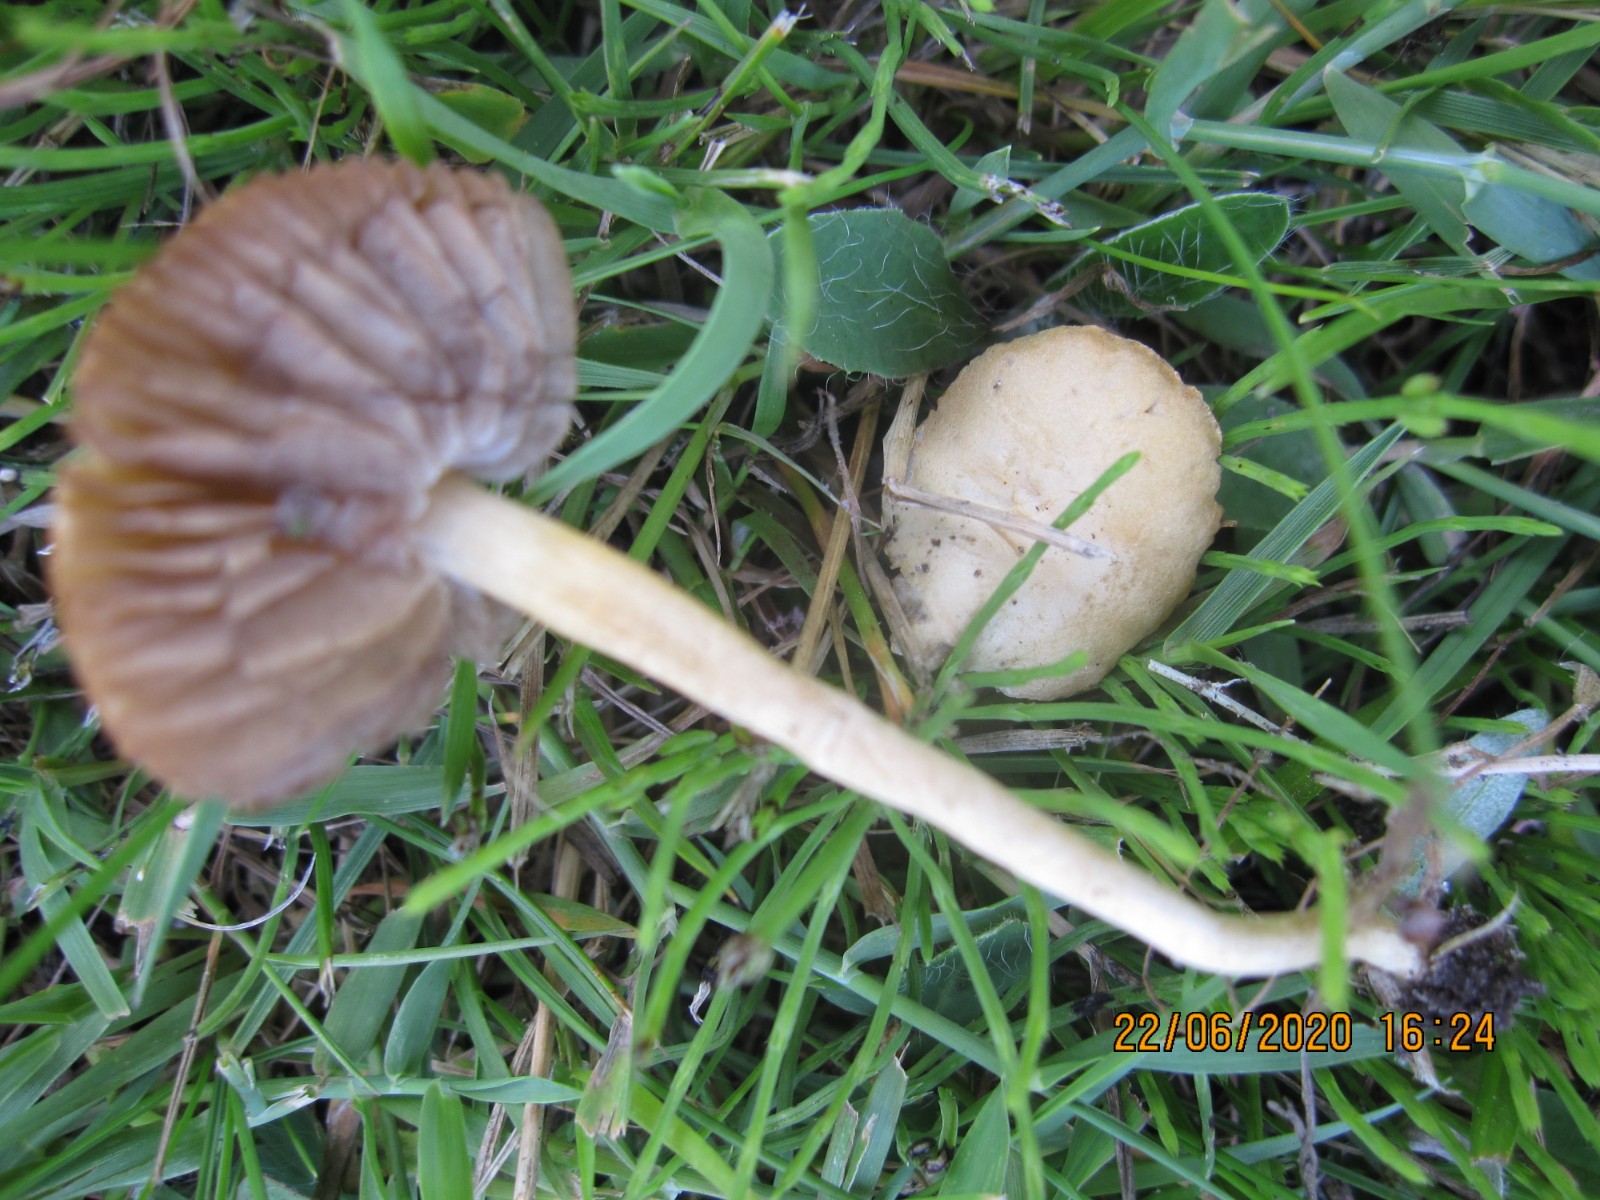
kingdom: Fungi
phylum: Basidiomycota
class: Agaricomycetes
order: Agaricales
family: Strophariaceae
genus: Agrocybe
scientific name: Agrocybe pediades
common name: almindelig agerhat
